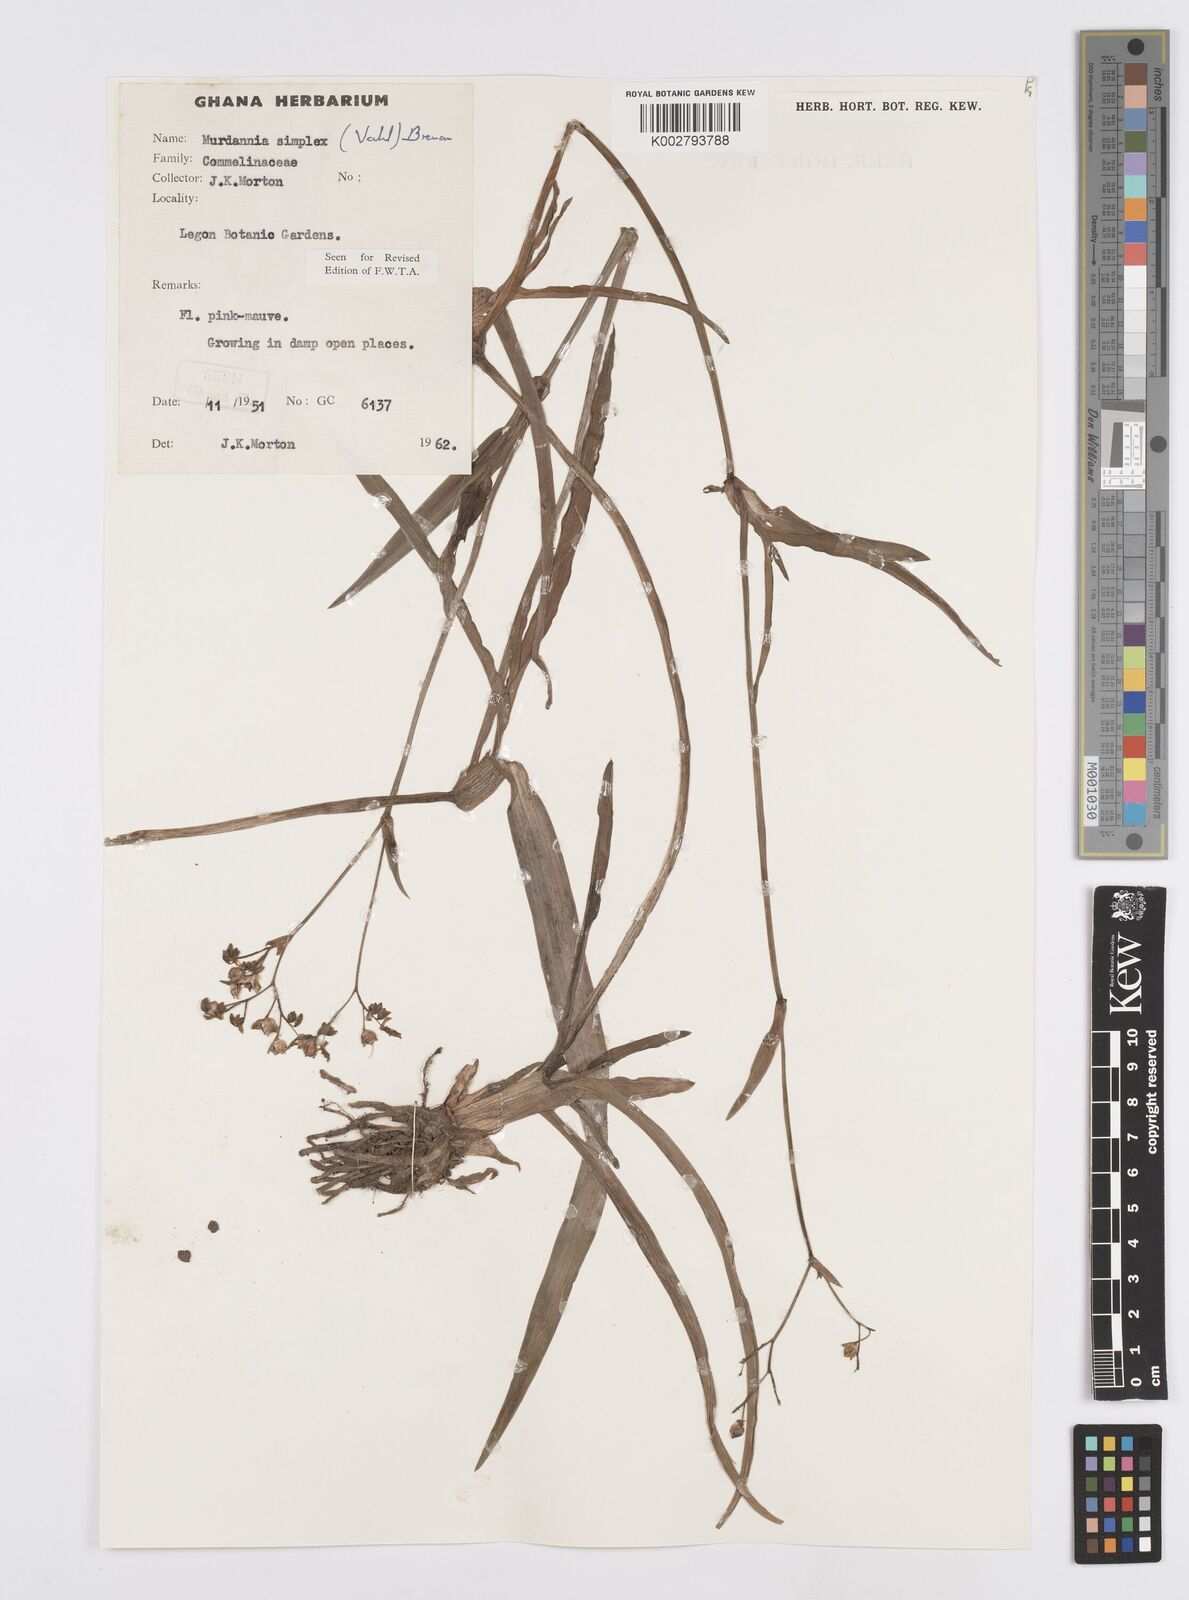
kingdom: Plantae
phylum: Tracheophyta
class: Liliopsida
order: Commelinales
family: Commelinaceae
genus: Murdannia
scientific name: Murdannia simplex
